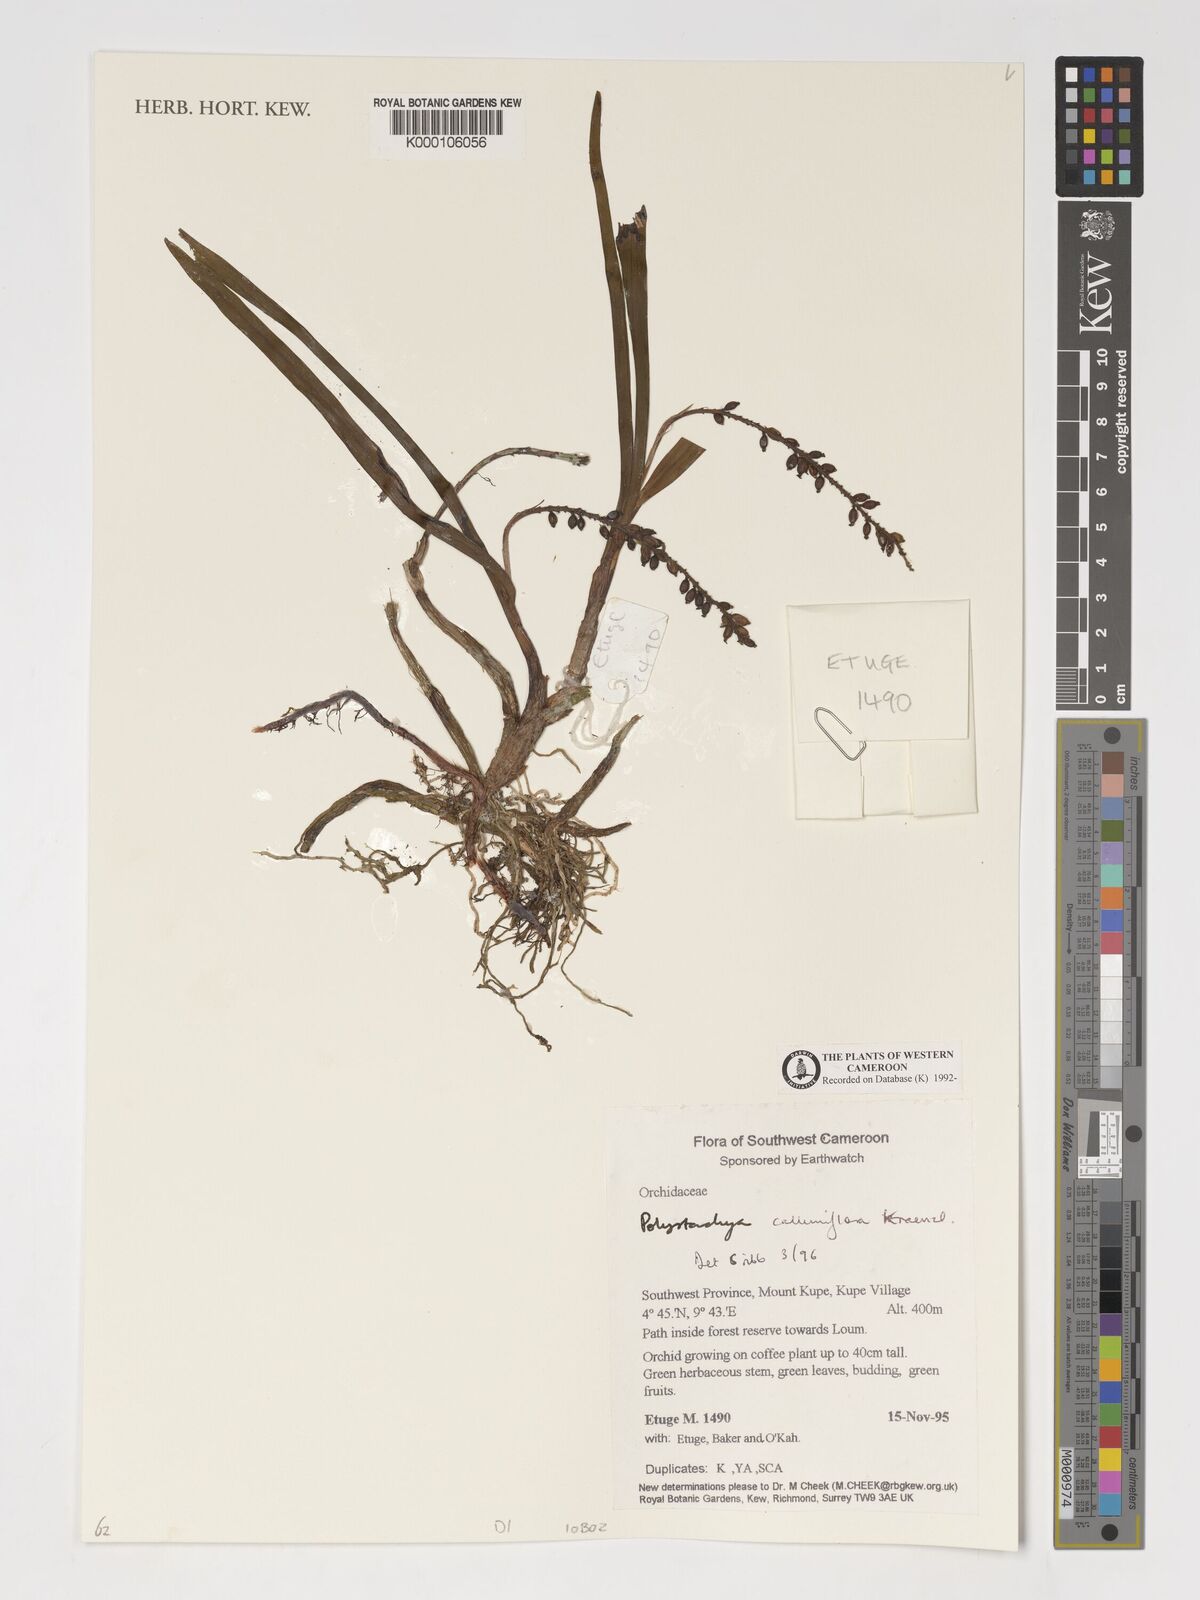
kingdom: Plantae
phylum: Tracheophyta
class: Liliopsida
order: Asparagales
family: Orchidaceae
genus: Polystachya
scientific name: Polystachya calluniflora
